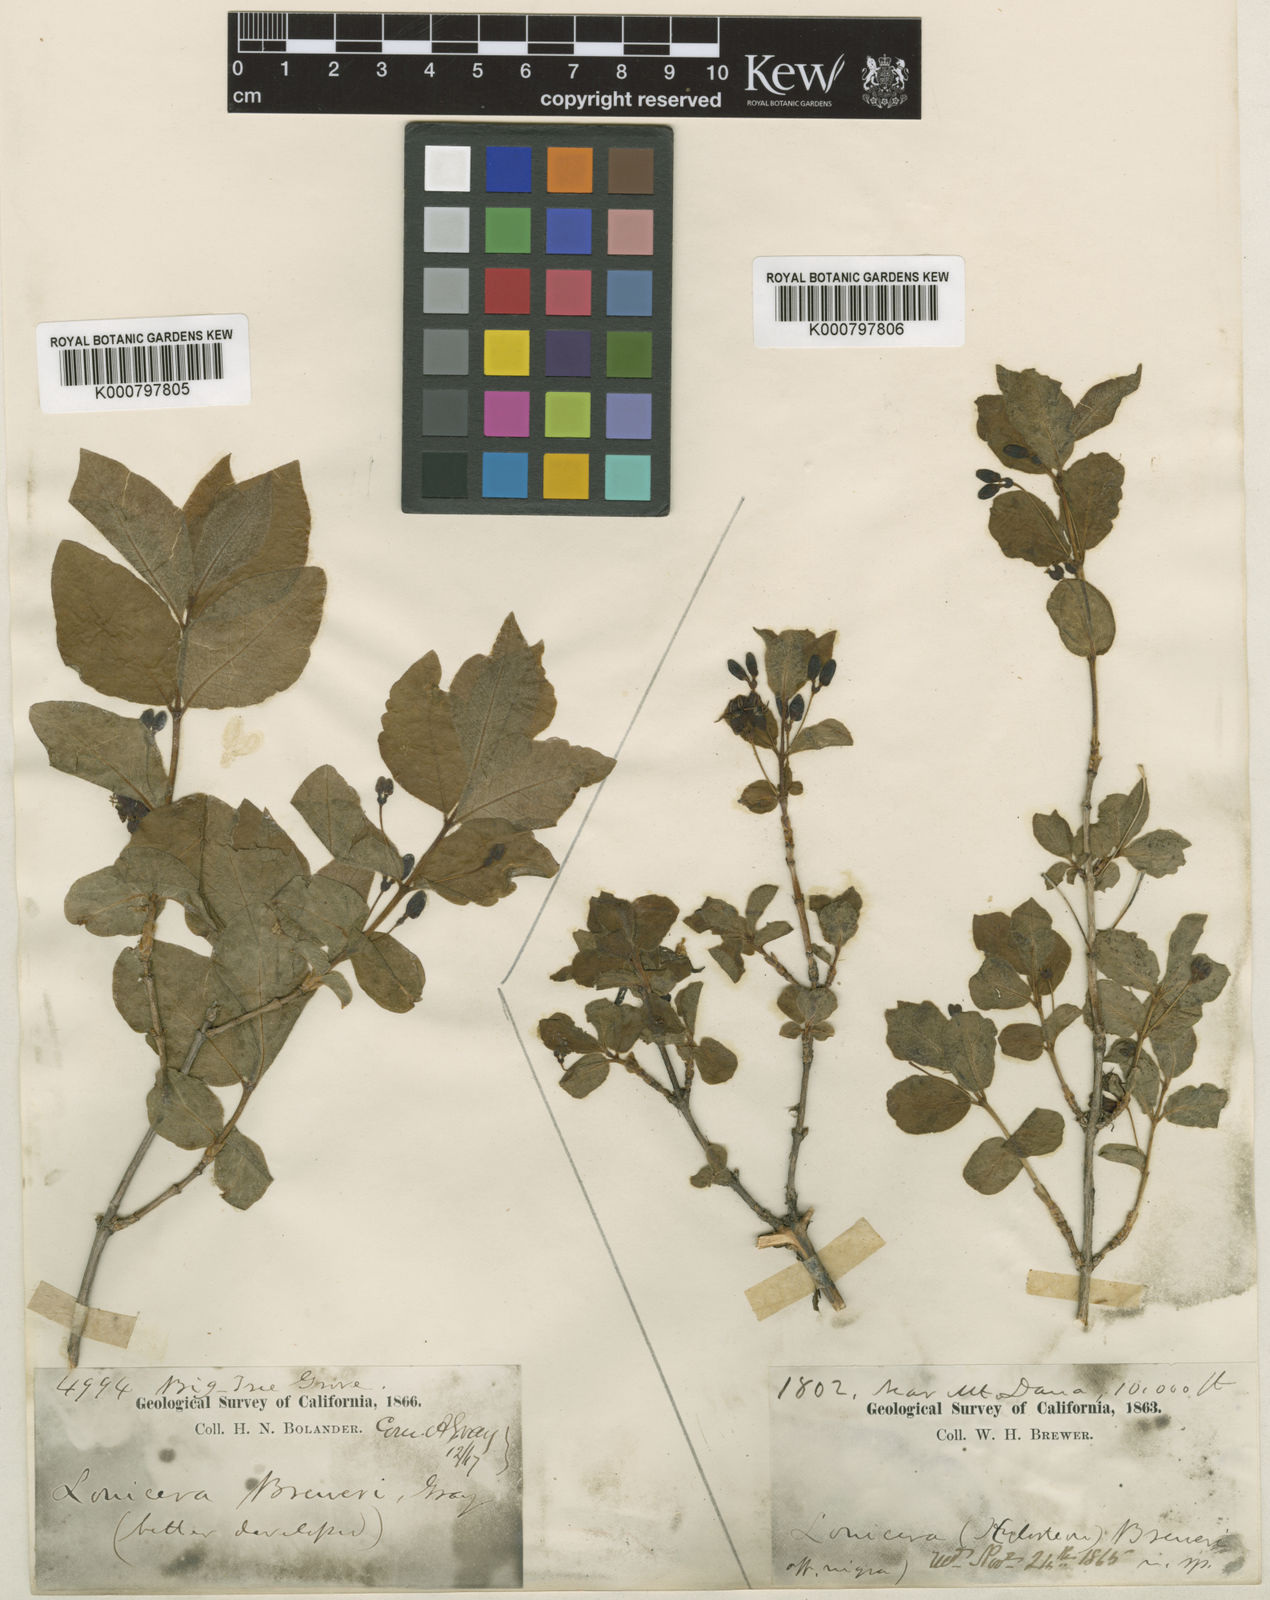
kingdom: Plantae
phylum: Tracheophyta
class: Magnoliopsida
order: Dipsacales
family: Caprifoliaceae
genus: Lonicera
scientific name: Lonicera conjugialis
